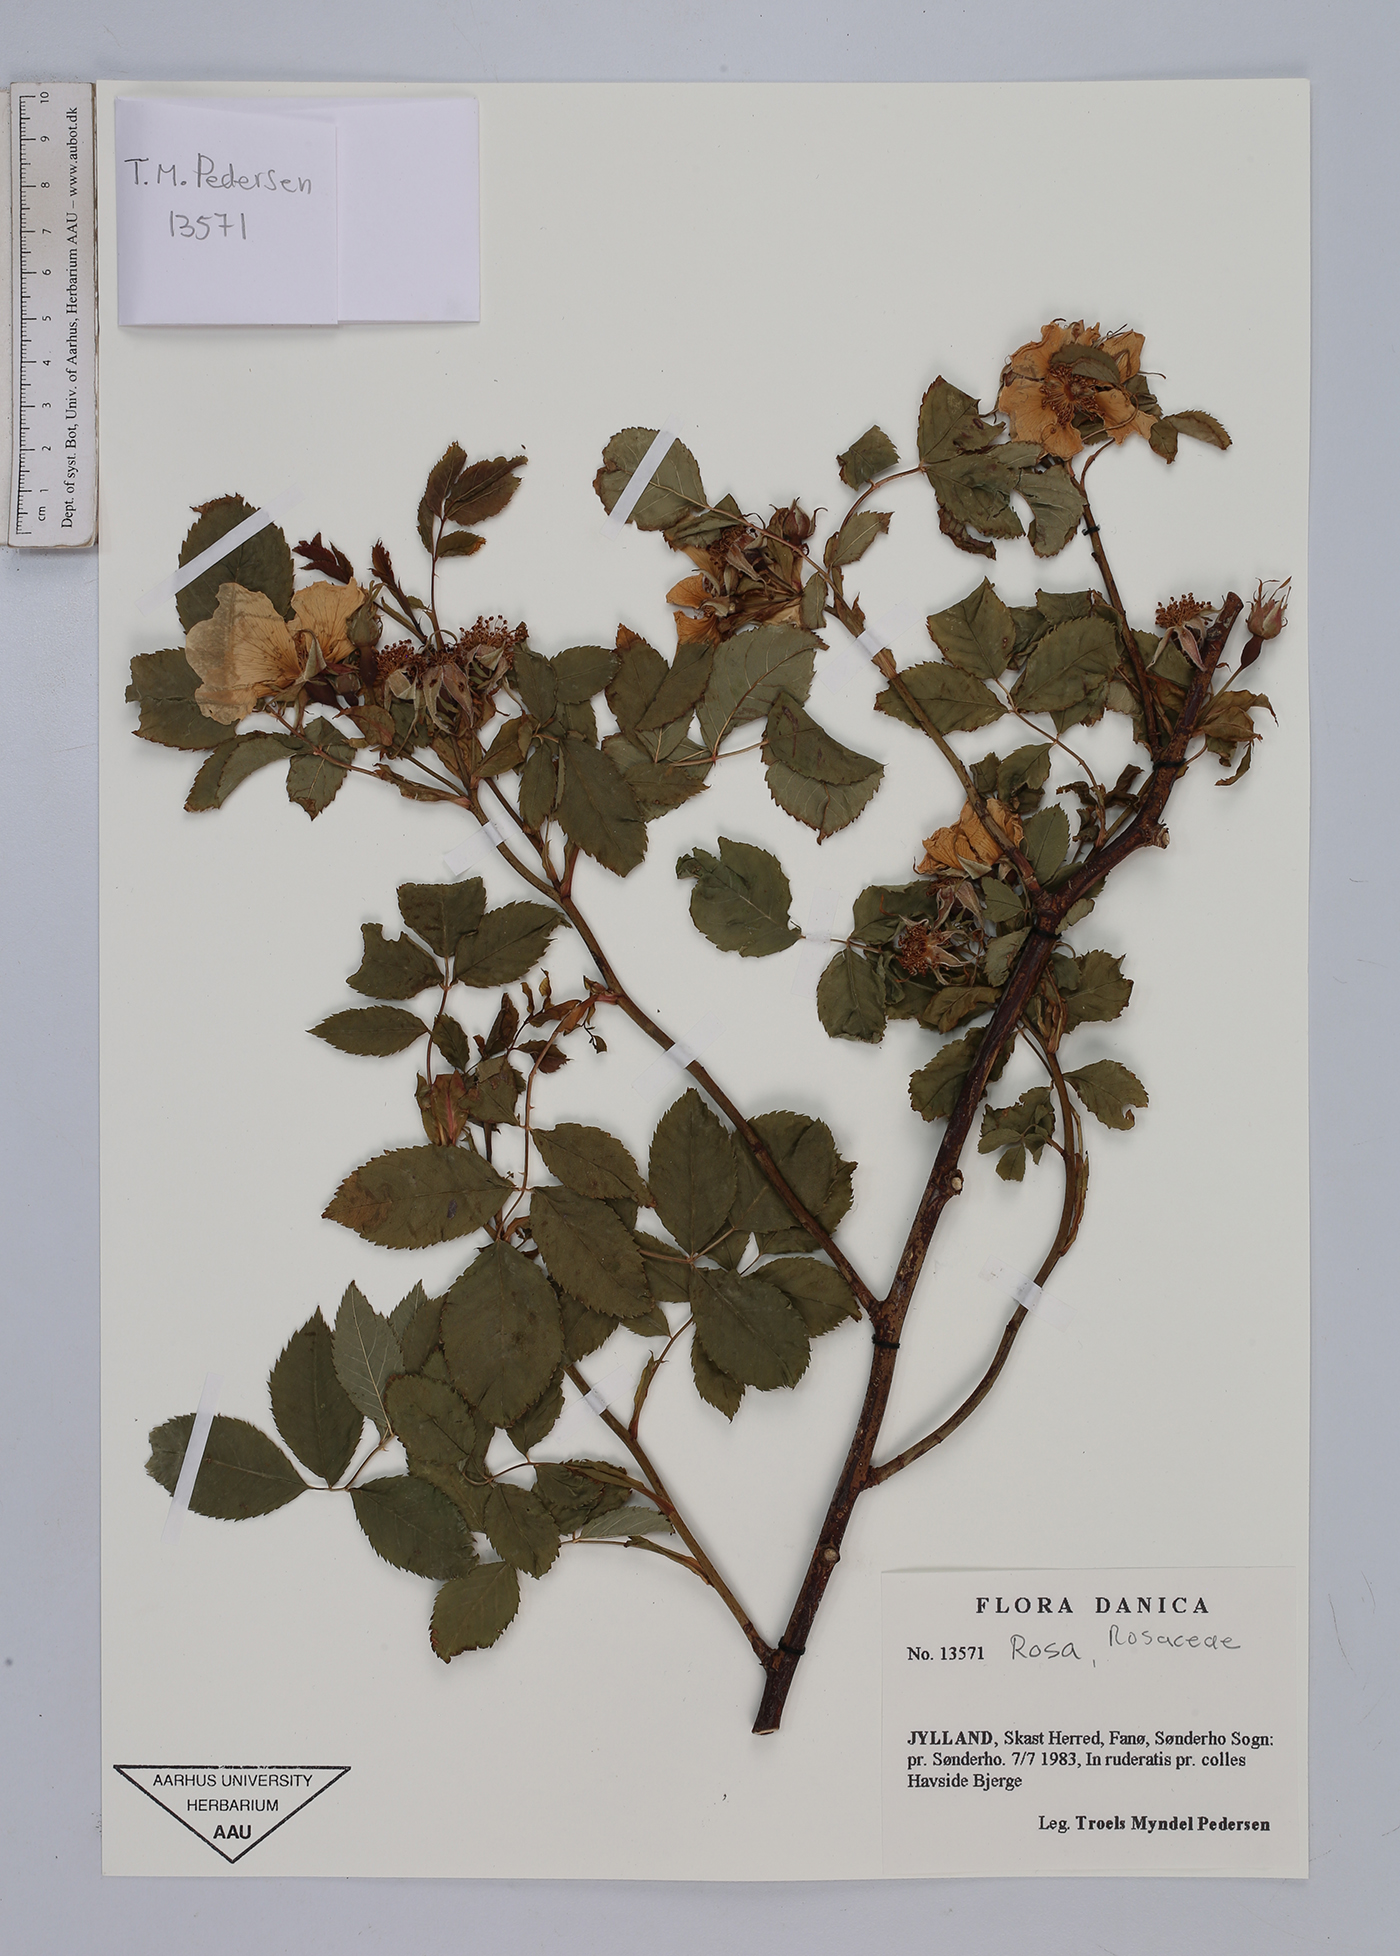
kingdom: Plantae
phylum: Tracheophyta
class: Magnoliopsida
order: Rosales
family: Rosaceae
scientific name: Rosaceae
